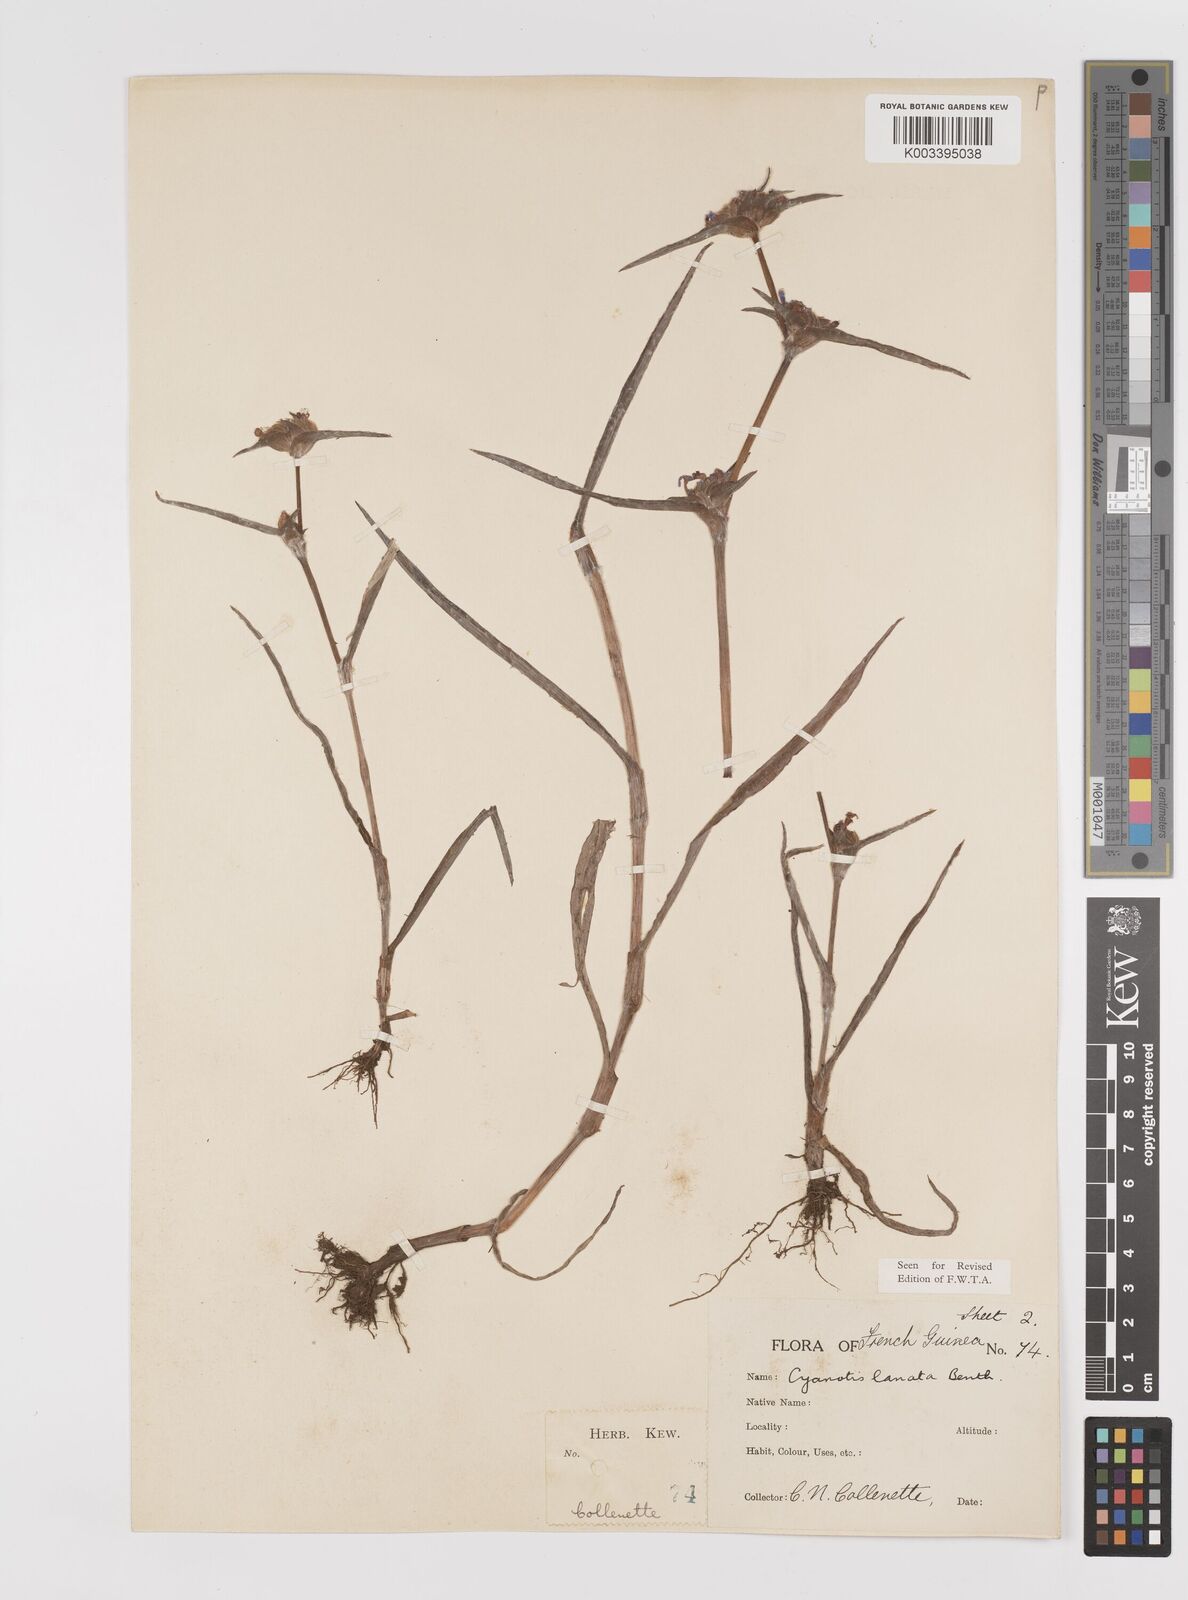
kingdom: Plantae
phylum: Tracheophyta
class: Liliopsida
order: Commelinales
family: Commelinaceae
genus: Cyanotis
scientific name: Cyanotis lanata
